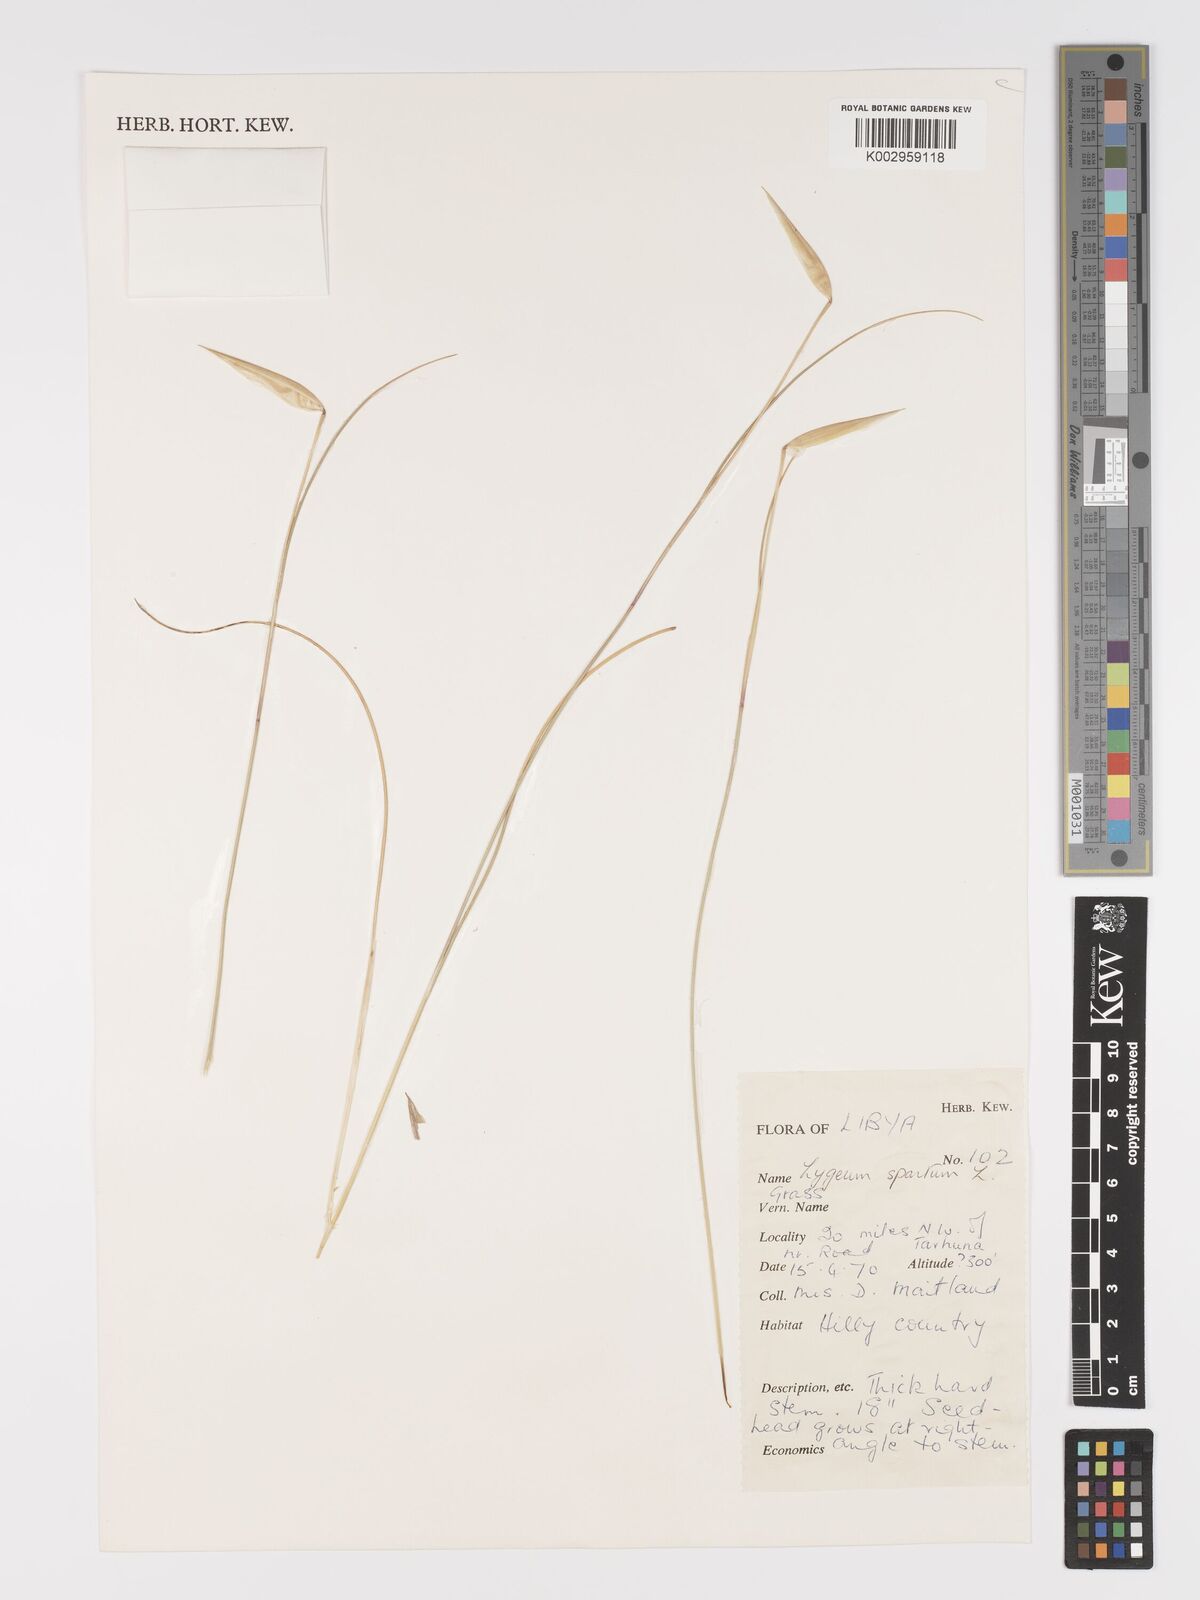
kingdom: Plantae
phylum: Tracheophyta
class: Liliopsida
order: Poales
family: Poaceae
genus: Lygeum
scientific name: Lygeum spartum
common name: Albardine
